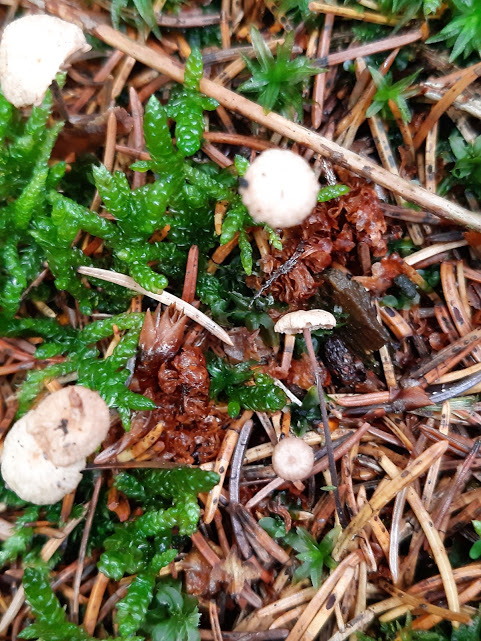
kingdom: Fungi
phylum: Basidiomycota
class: Agaricomycetes
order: Agaricales
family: Omphalotaceae
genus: Paragymnopus
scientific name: Paragymnopus perforans
